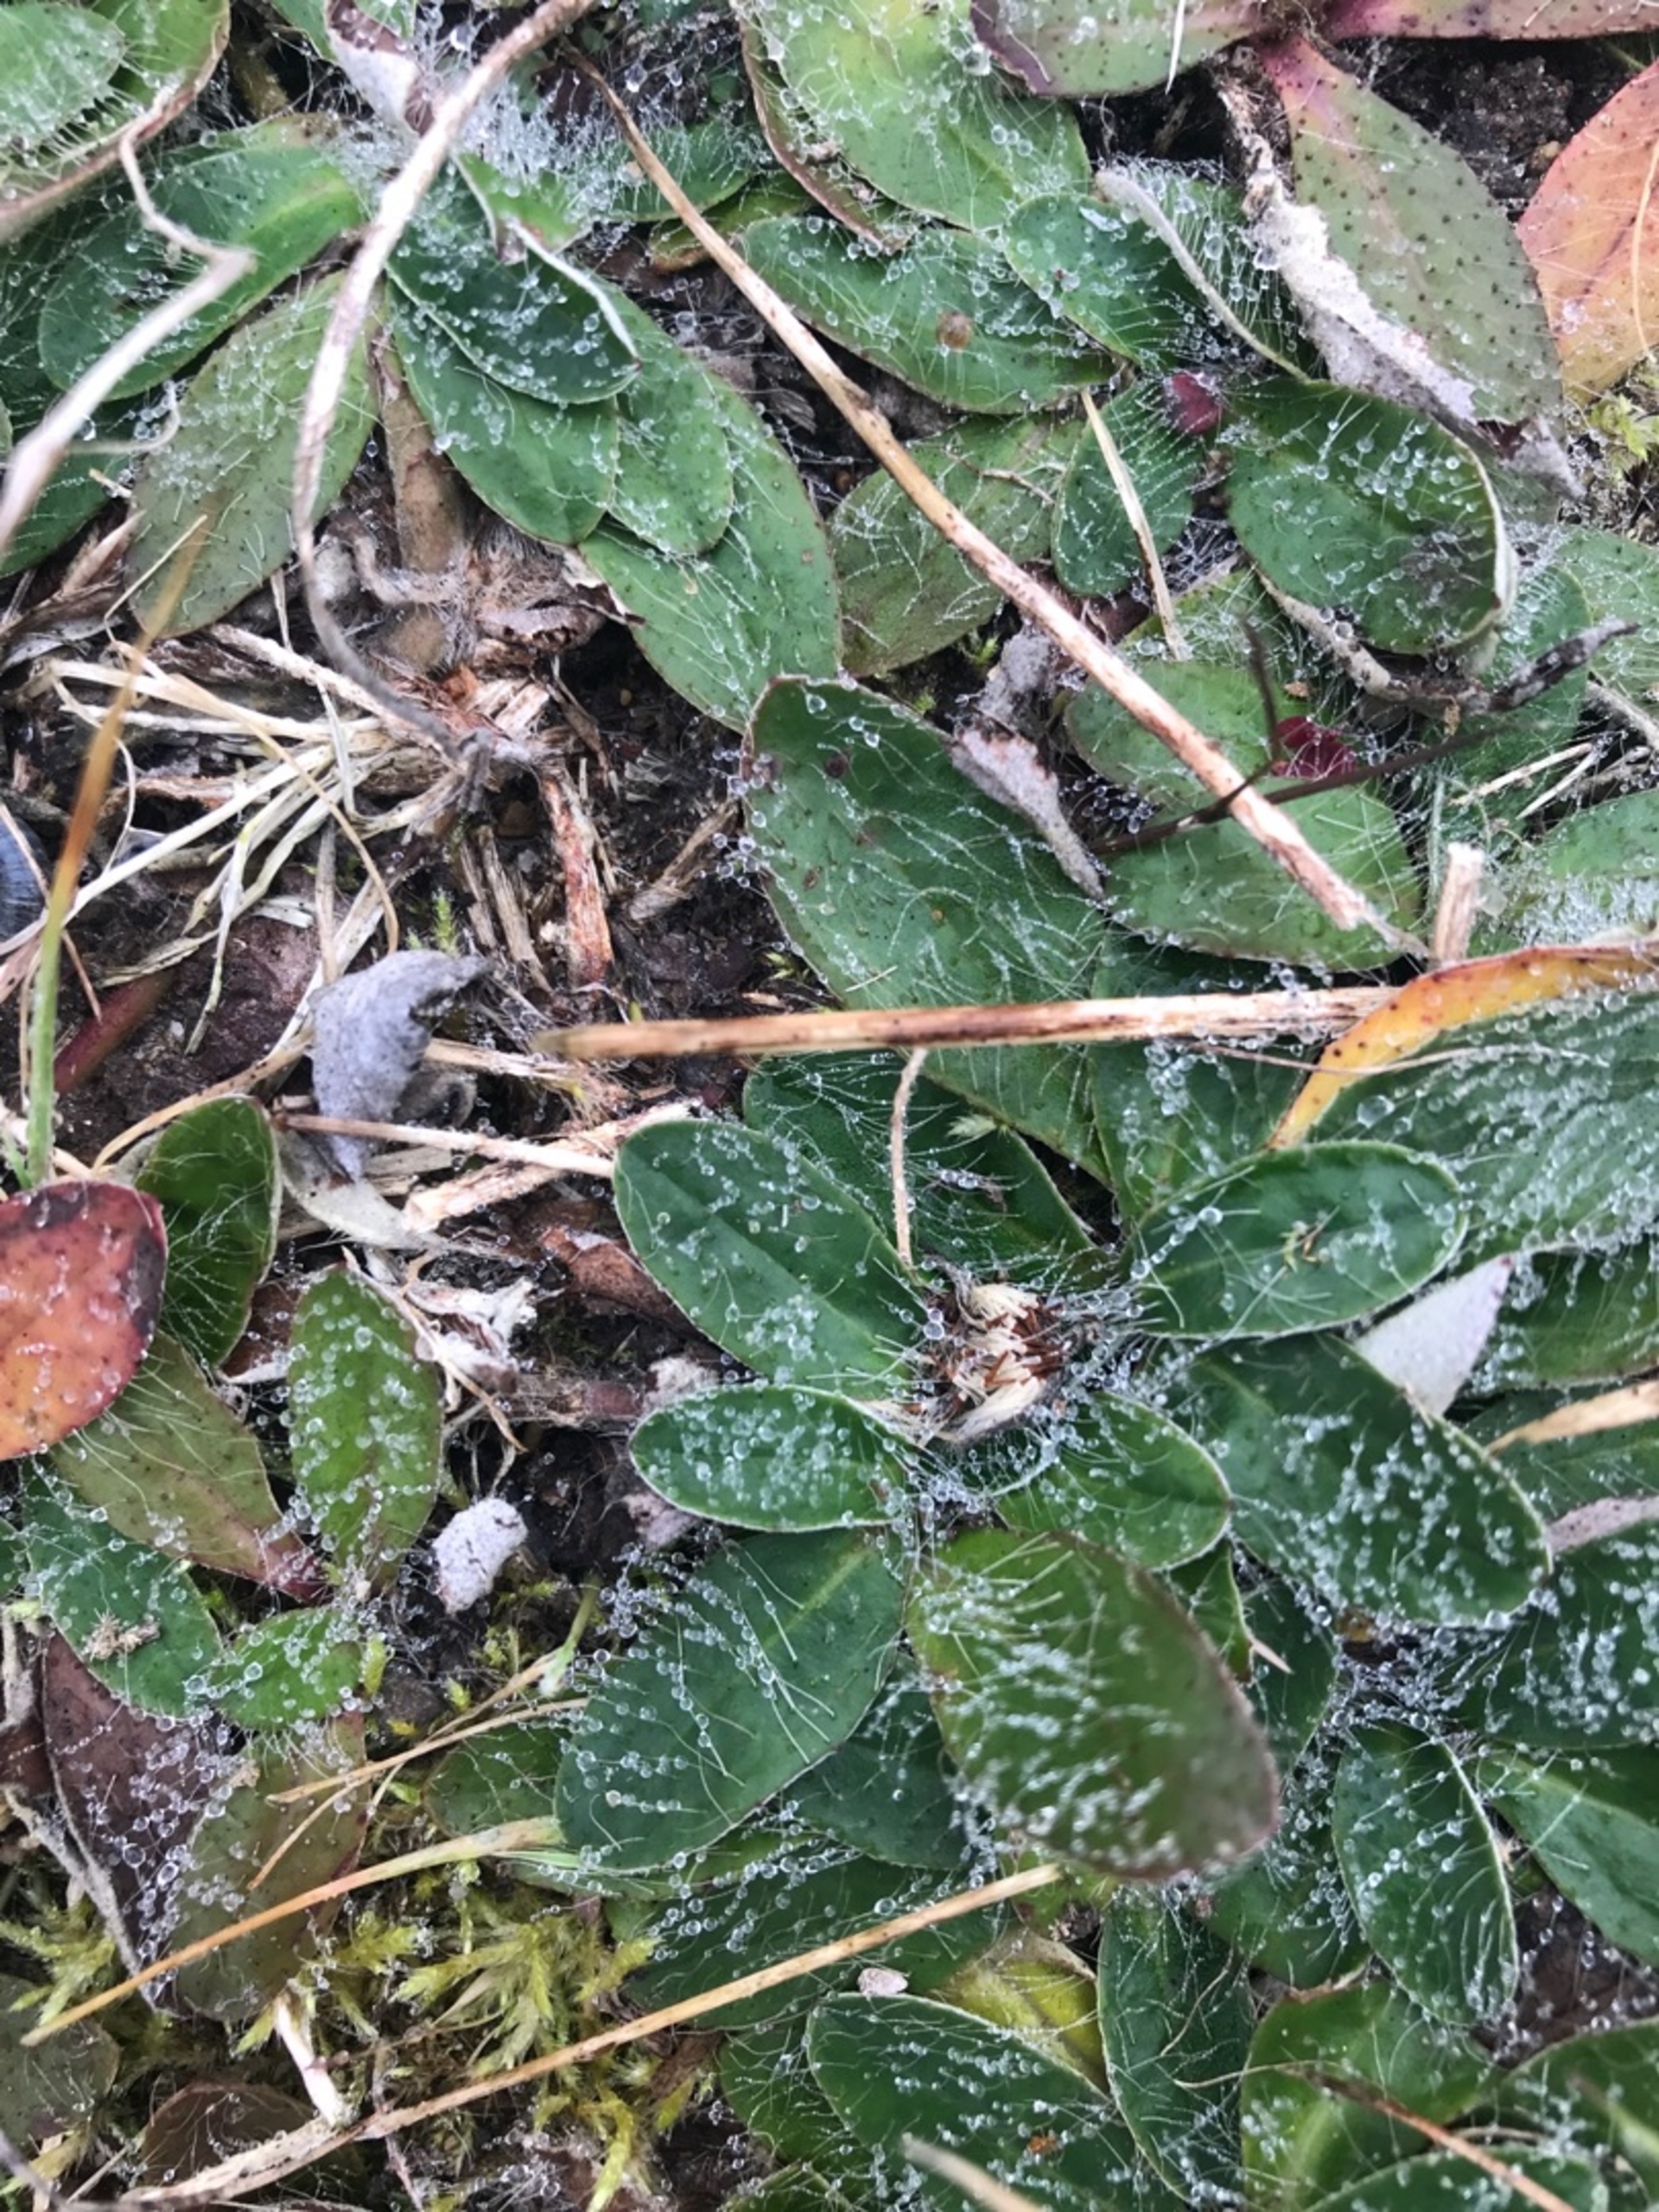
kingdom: Plantae
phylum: Tracheophyta
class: Magnoliopsida
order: Asterales
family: Asteraceae
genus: Pilosella
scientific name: Pilosella officinarum
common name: Håret høgeurt
